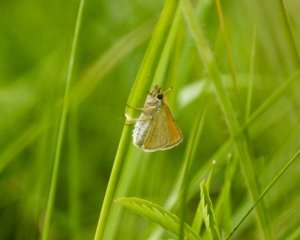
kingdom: Animalia
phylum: Arthropoda
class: Insecta
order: Lepidoptera
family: Hesperiidae
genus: Thymelicus
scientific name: Thymelicus lineola
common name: European Skipper
